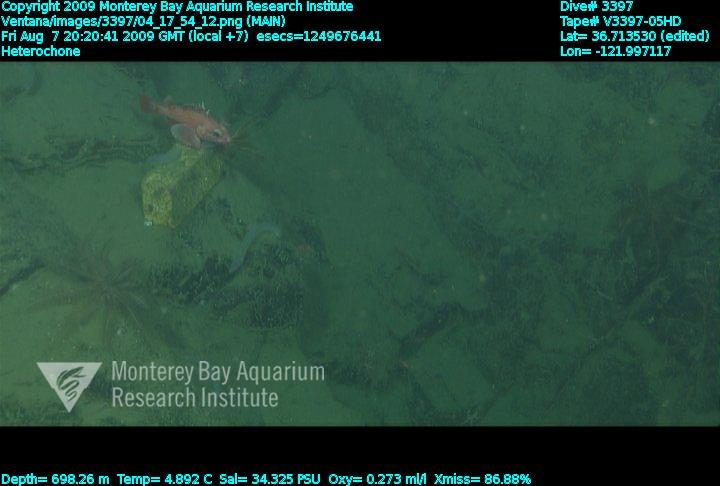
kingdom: Animalia
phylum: Porifera
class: Hexactinellida
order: Sceptrulophora
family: Aphrocallistidae
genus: Heterochone
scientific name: Heterochone
